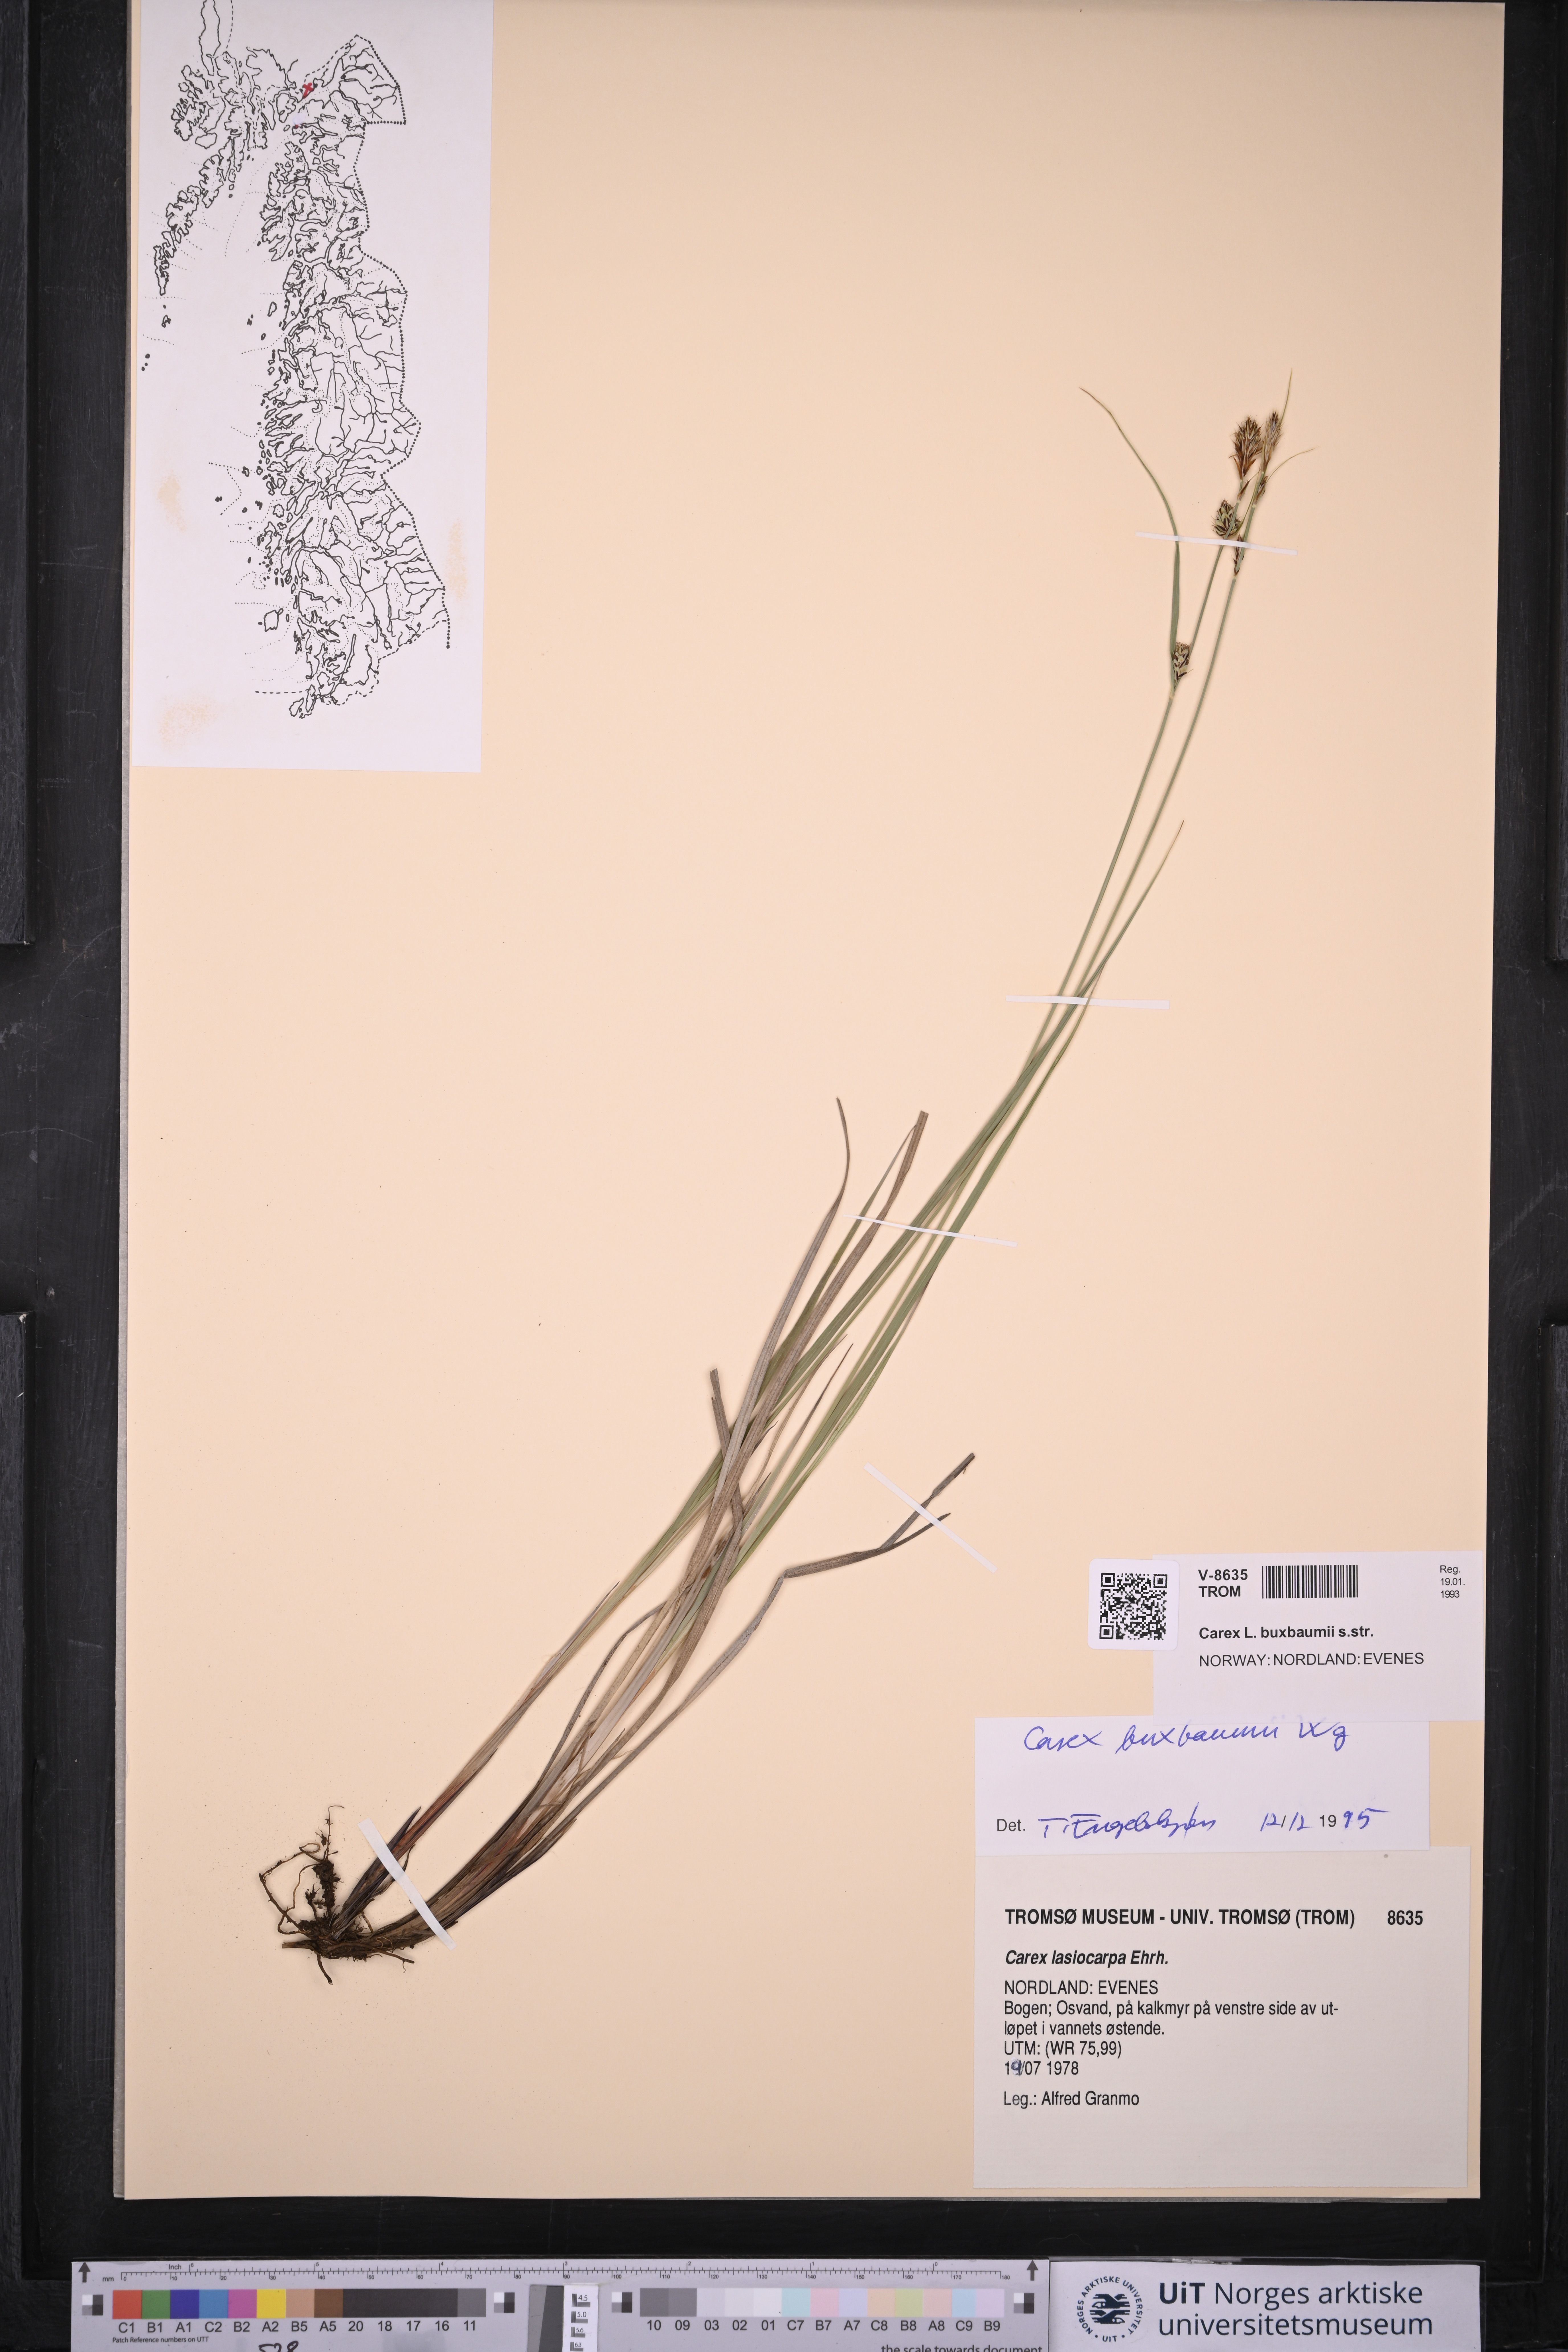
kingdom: Plantae
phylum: Tracheophyta
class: Liliopsida
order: Poales
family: Cyperaceae
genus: Carex
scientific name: Carex buxbaumii
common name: Club sedge
